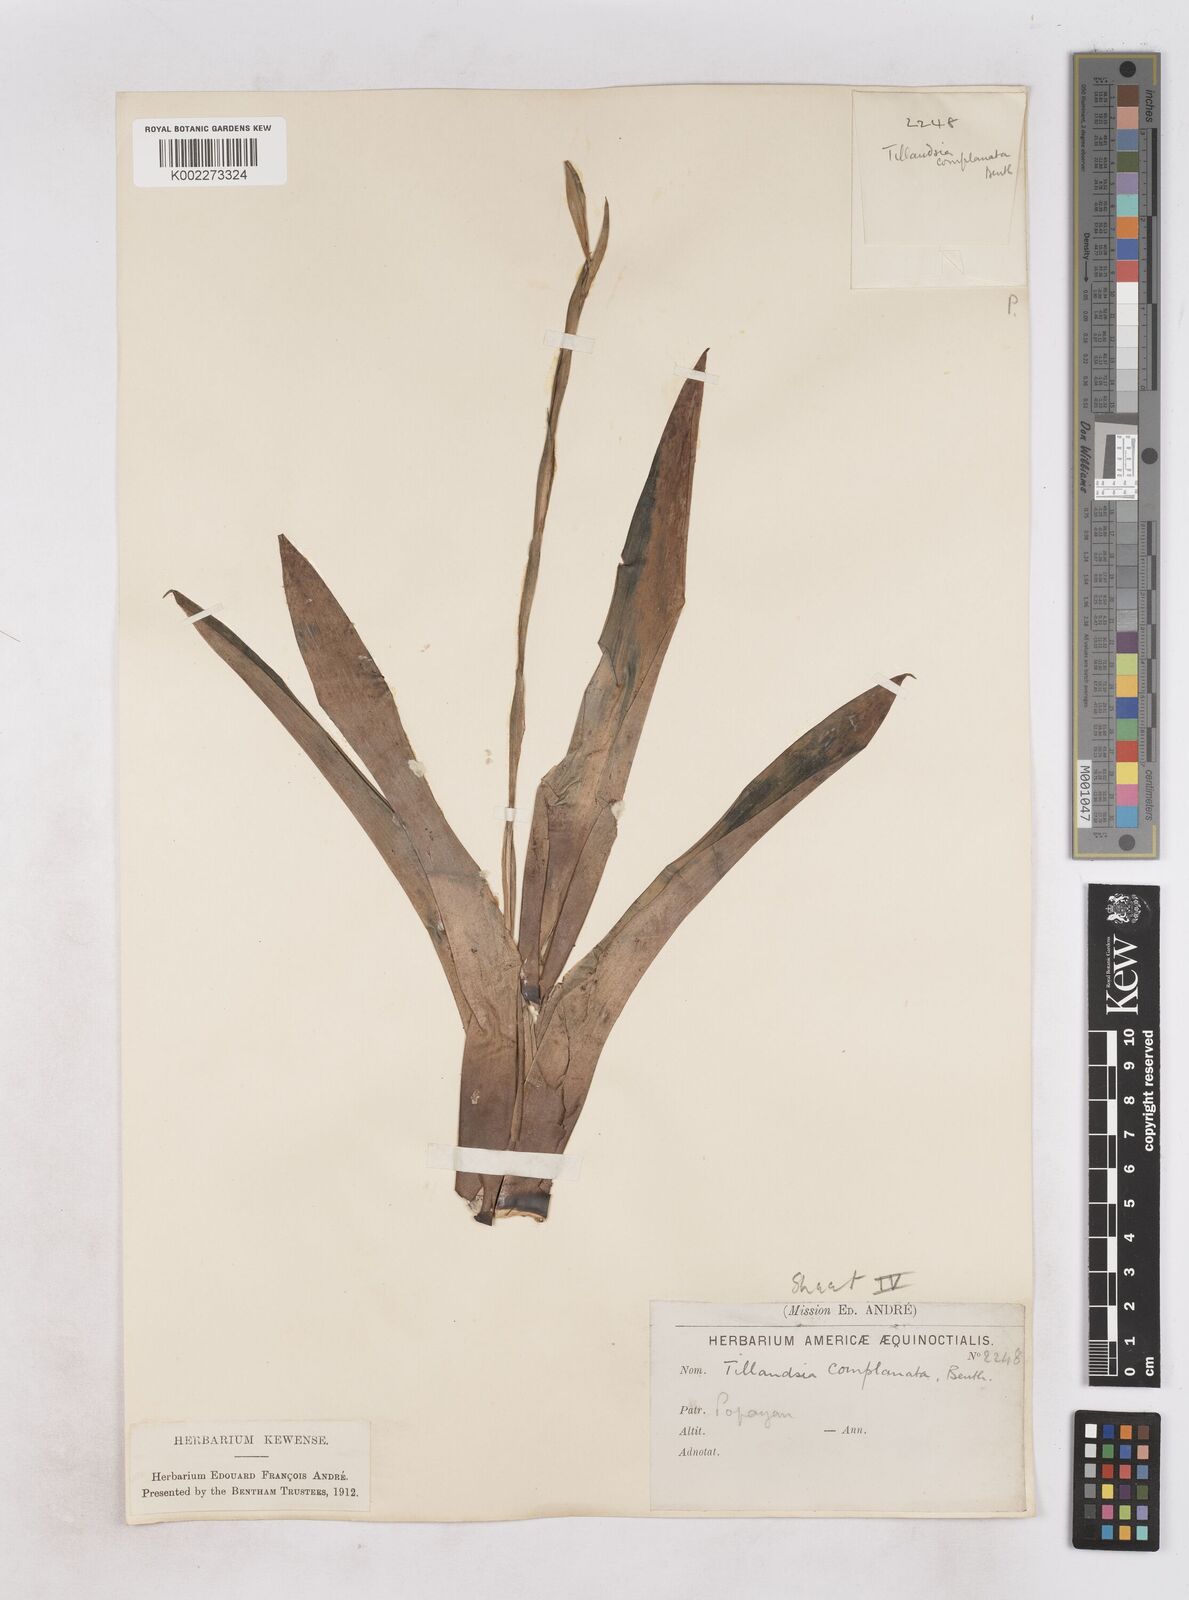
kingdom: Plantae
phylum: Tracheophyta
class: Liliopsida
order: Poales
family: Bromeliaceae
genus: Tillandsia
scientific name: Tillandsia complanata
